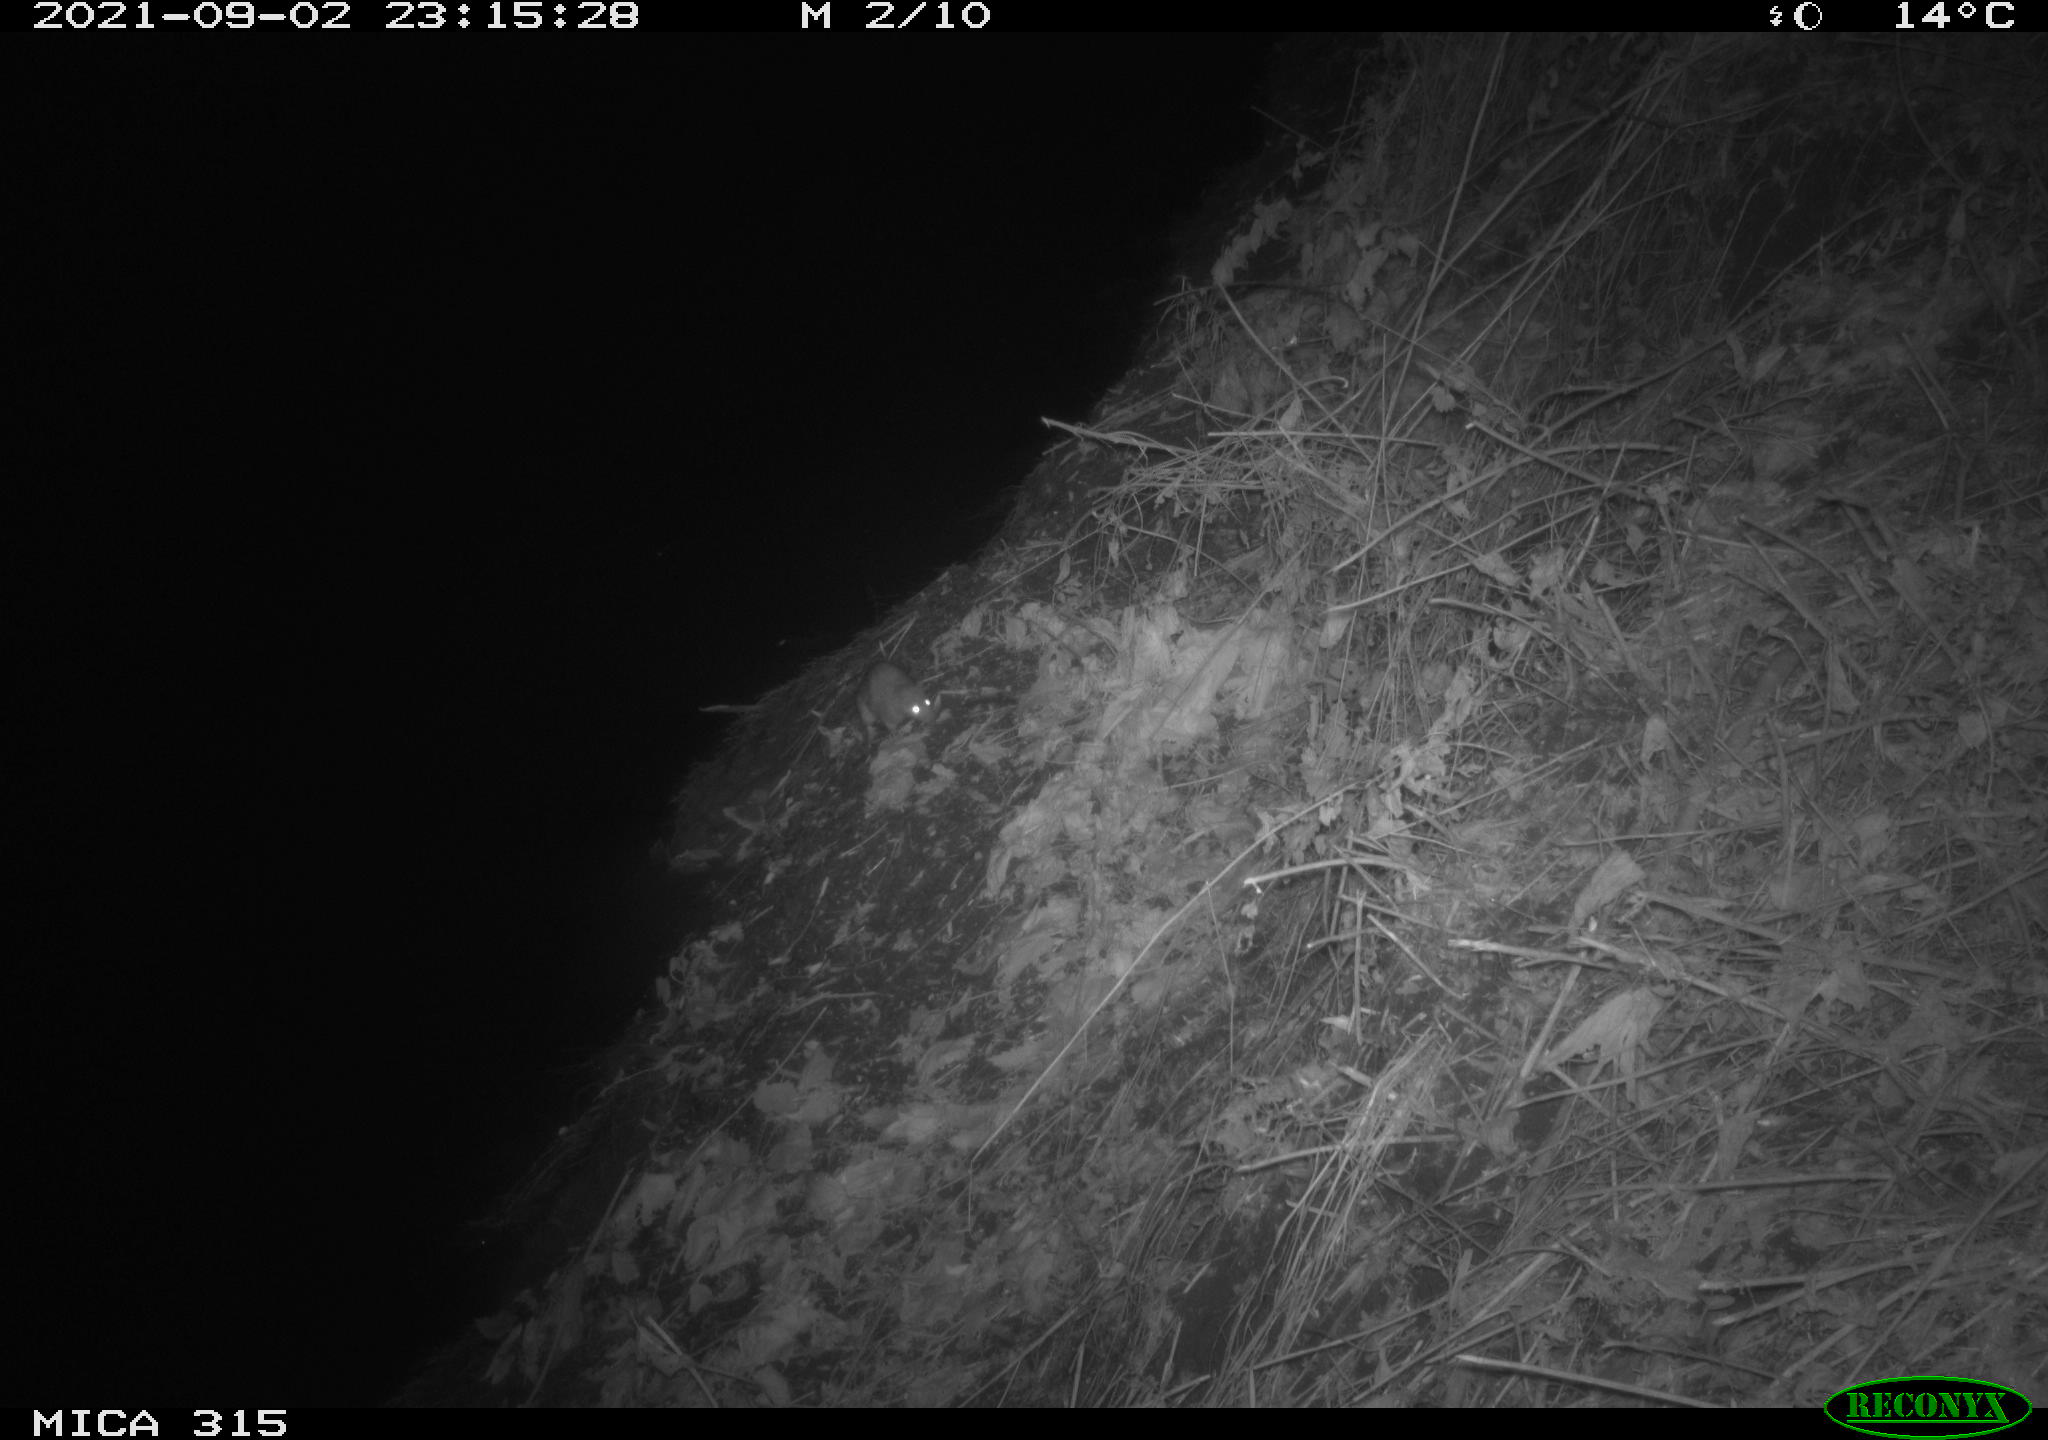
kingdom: Animalia
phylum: Chordata
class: Mammalia
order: Rodentia
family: Muridae
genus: Rattus
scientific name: Rattus norvegicus
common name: Brown rat
